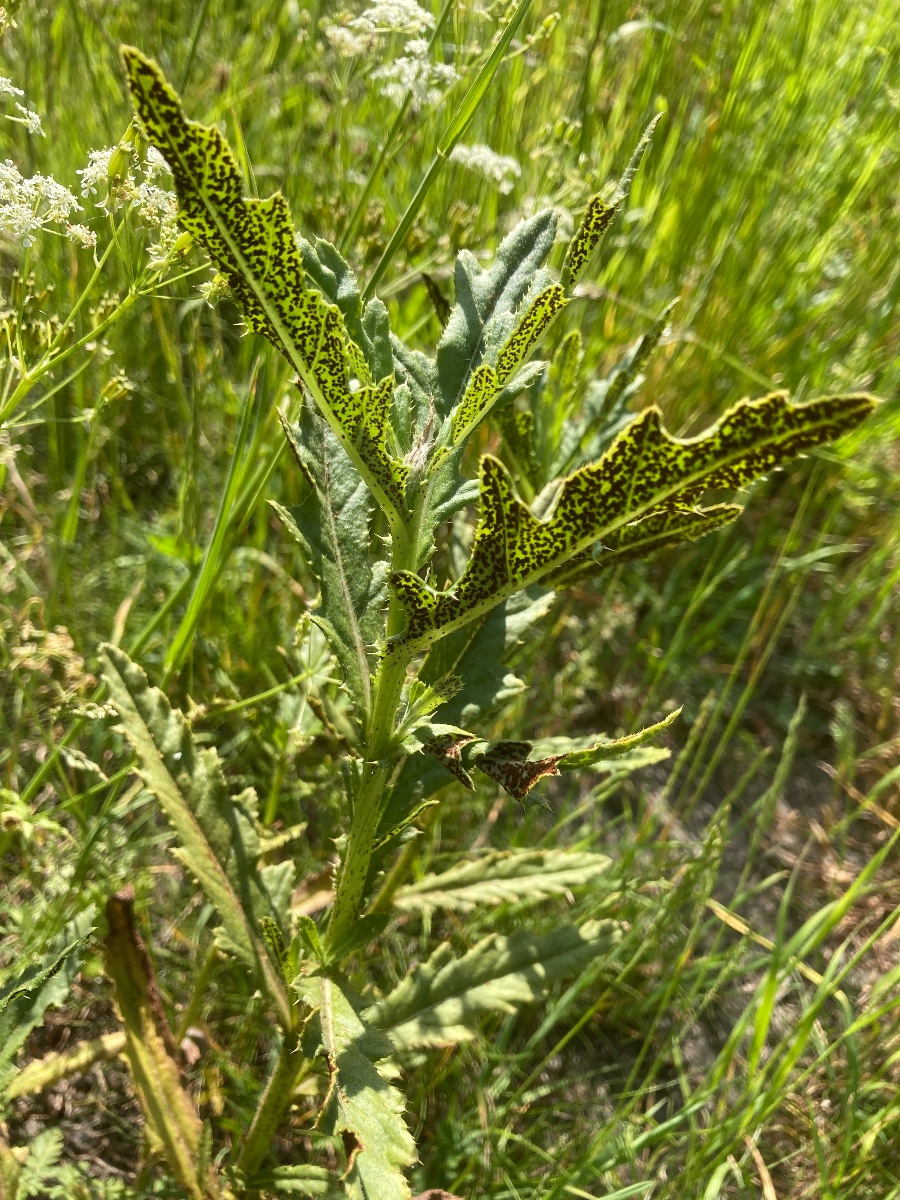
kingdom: Fungi
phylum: Basidiomycota
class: Pucciniomycetes
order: Pucciniales
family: Pucciniaceae
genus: Puccinia
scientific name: Puccinia suaveolens
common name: tidsel-tvecellerust
